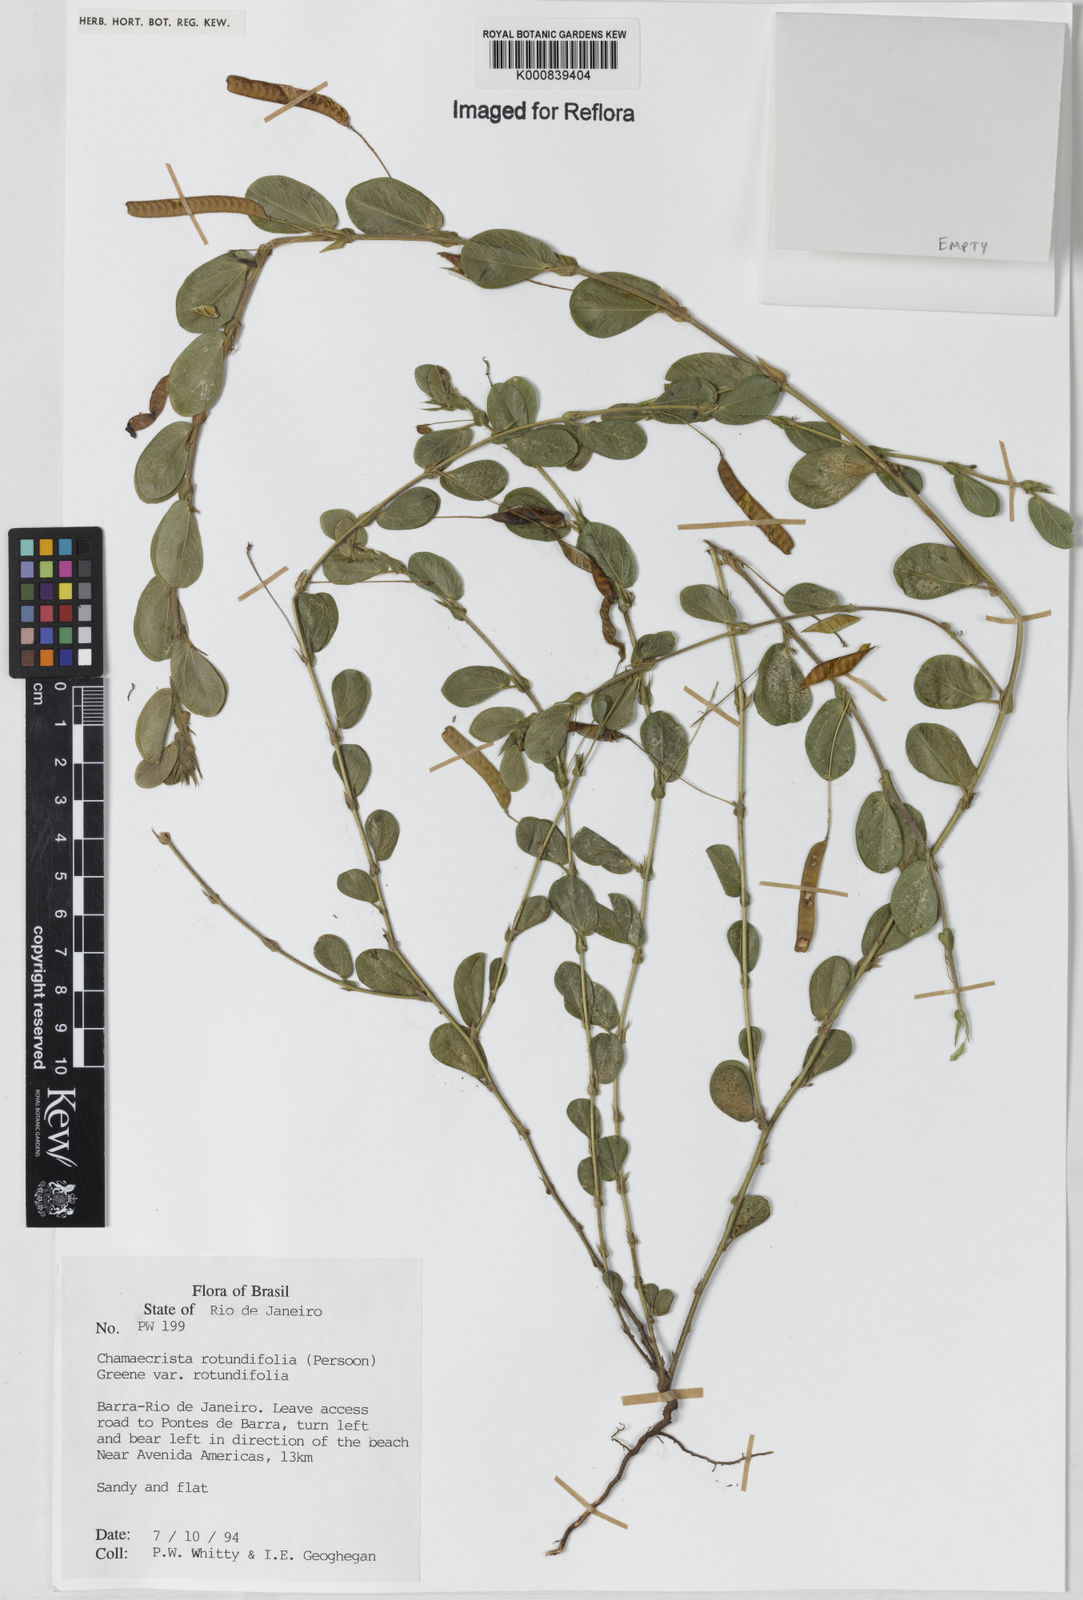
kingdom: Plantae
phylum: Tracheophyta
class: Magnoliopsida
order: Fabales
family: Fabaceae
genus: Chamaecrista
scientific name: Chamaecrista rotundifolia
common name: Round-leaf cassia
